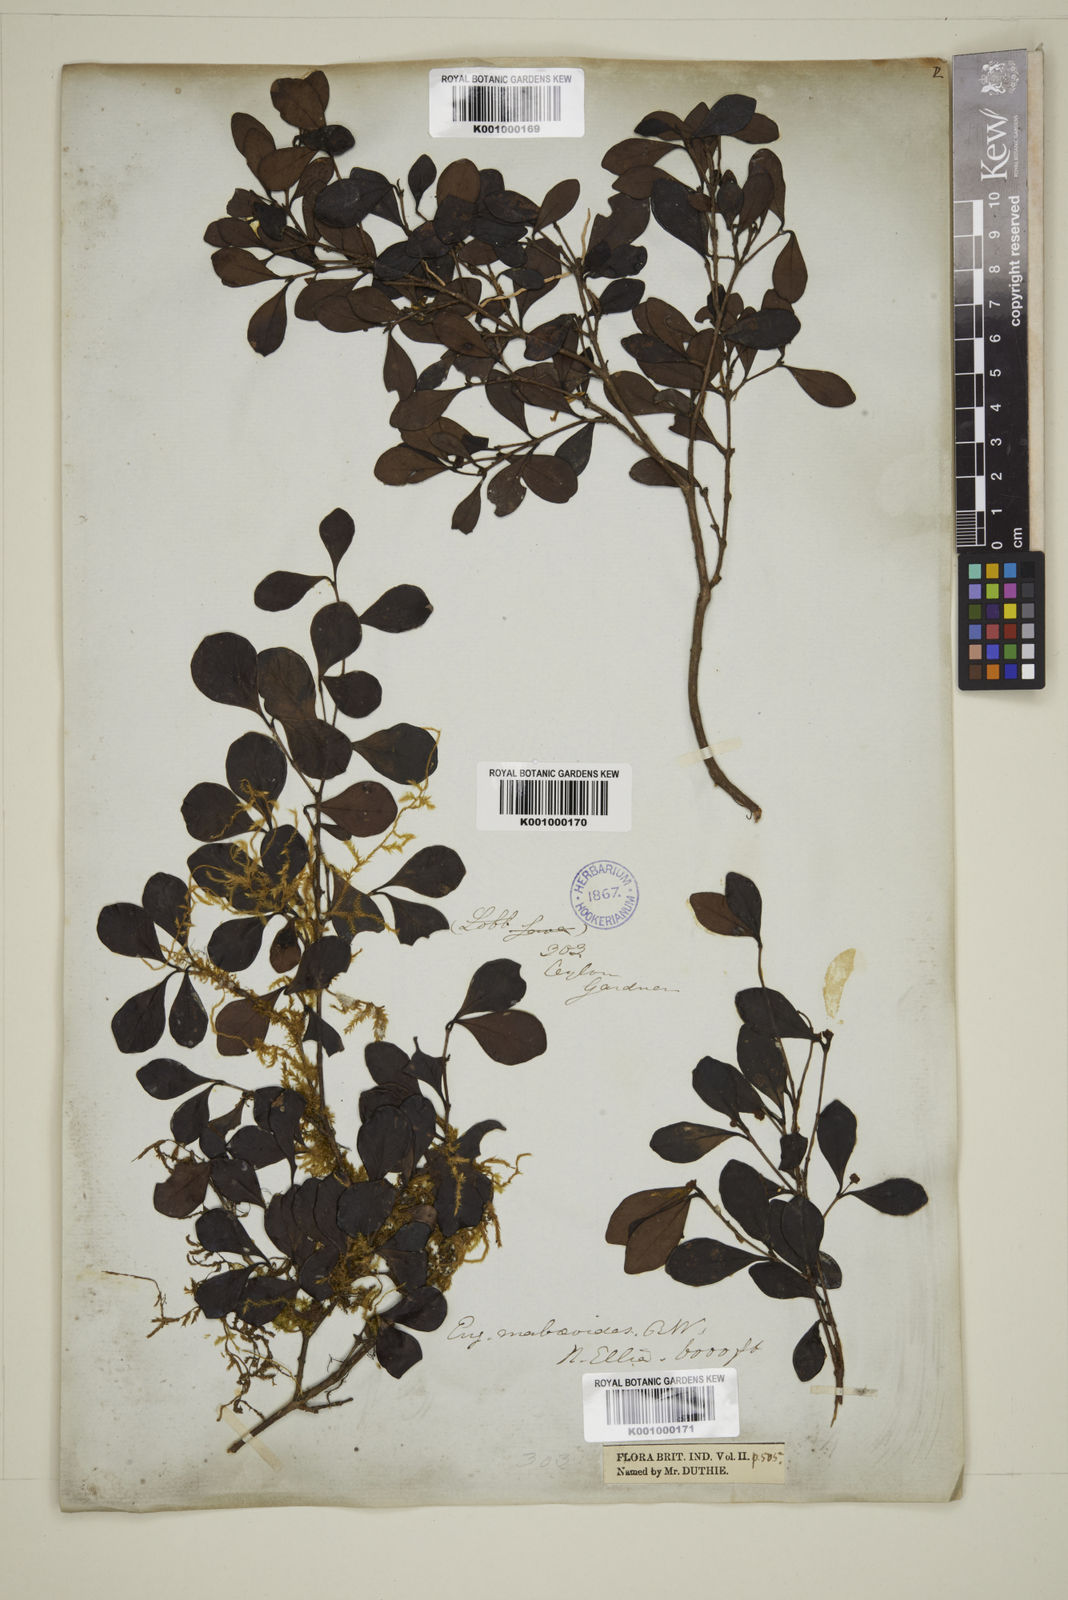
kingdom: Plantae
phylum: Tracheophyta
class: Magnoliopsida
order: Myrtales
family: Myrtaceae
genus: Eugenia
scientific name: Eugenia mabaeoides
